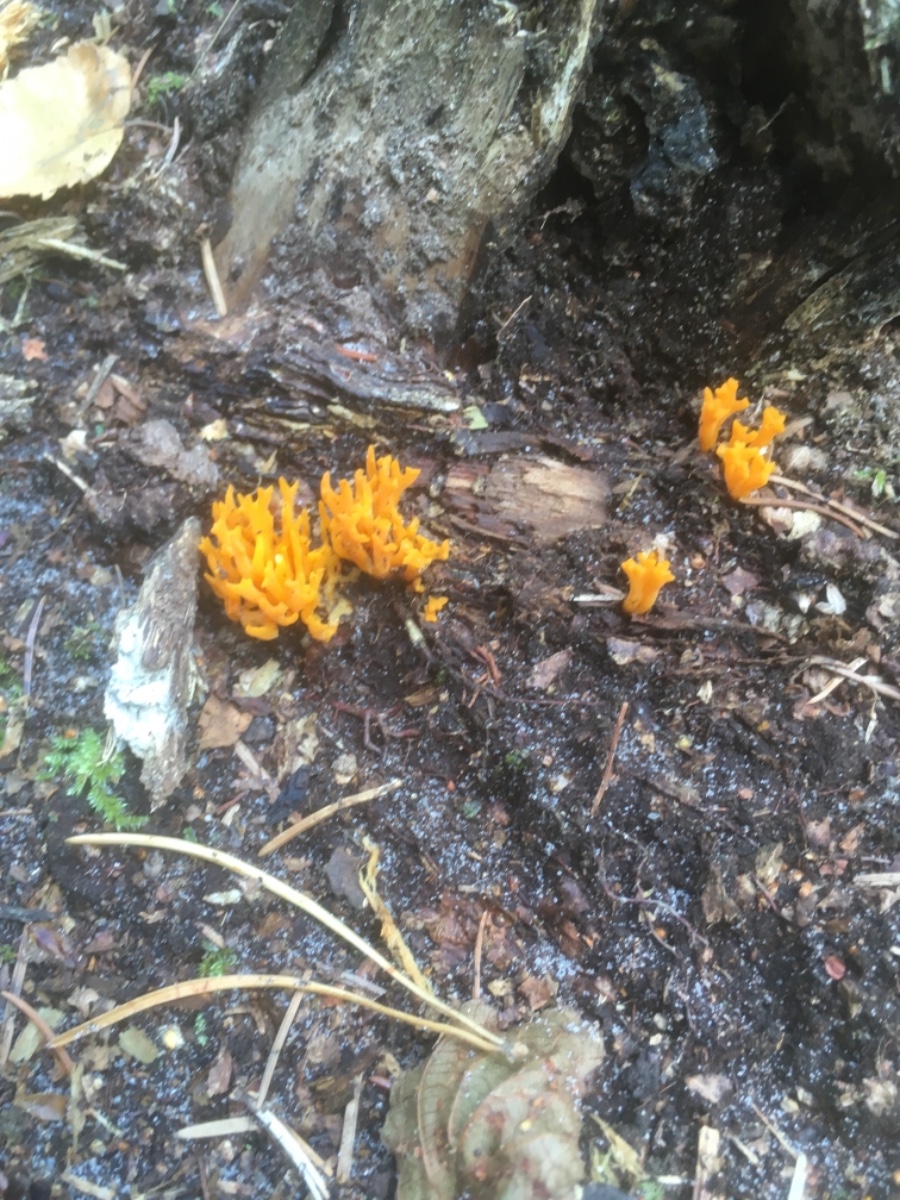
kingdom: Fungi
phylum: Basidiomycota
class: Dacrymycetes
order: Dacrymycetales
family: Dacrymycetaceae
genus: Calocera
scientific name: Calocera viscosa
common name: almindelig guldgaffel
